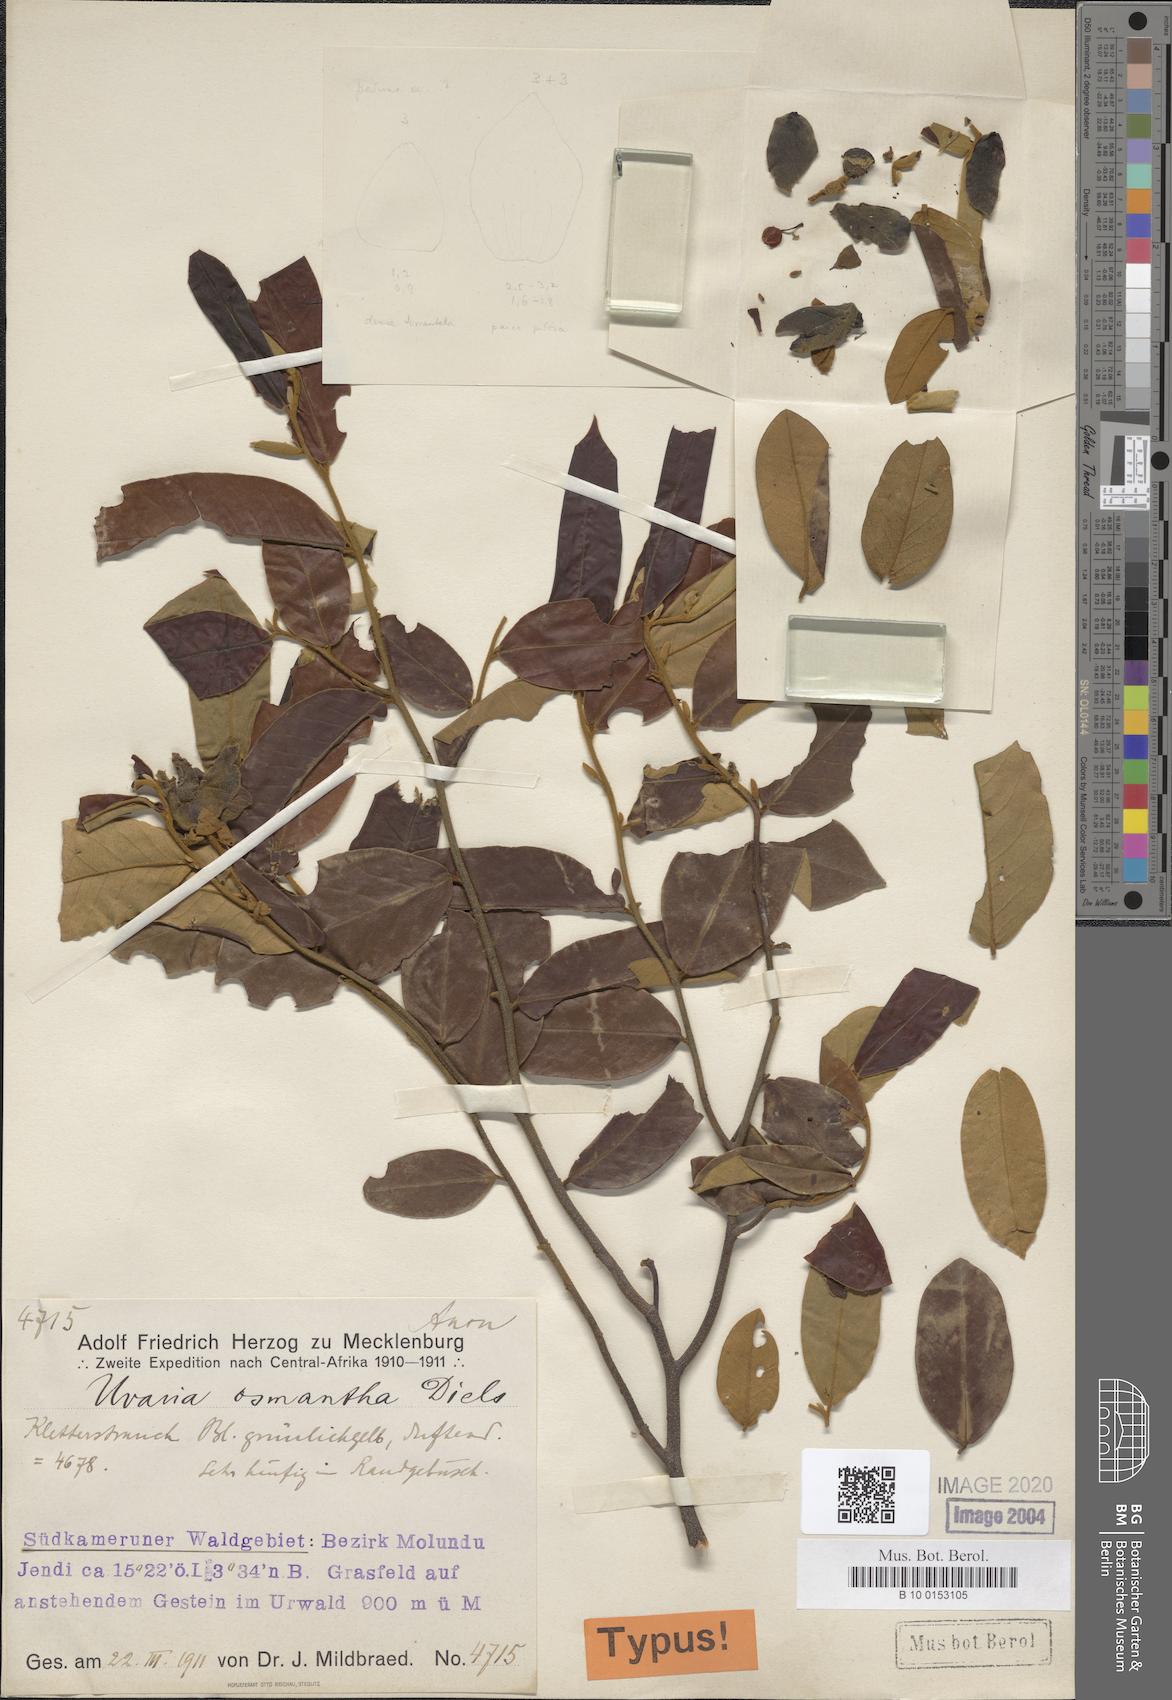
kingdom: Plantae
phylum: Tracheophyta
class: Magnoliopsida
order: Magnoliales
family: Annonaceae
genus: Uvaria
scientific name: Uvaria osmantha
